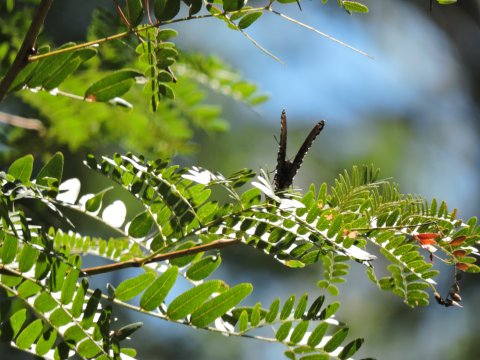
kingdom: Animalia
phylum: Arthropoda
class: Insecta
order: Lepidoptera
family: Nymphalidae
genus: Limenitis
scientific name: Limenitis arthemis
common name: Red-spotted Admiral
